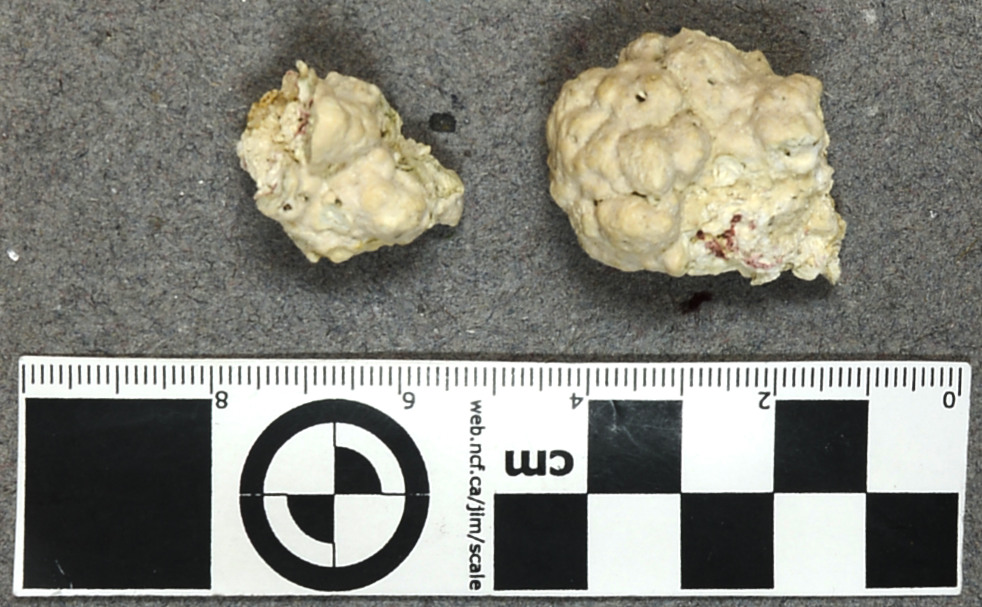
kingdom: Plantae
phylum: Rhodophyta
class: Florideophyceae
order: Corallinales
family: Hydrolithaceae
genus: Hydrolithon
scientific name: Hydrolithon boergesenii
